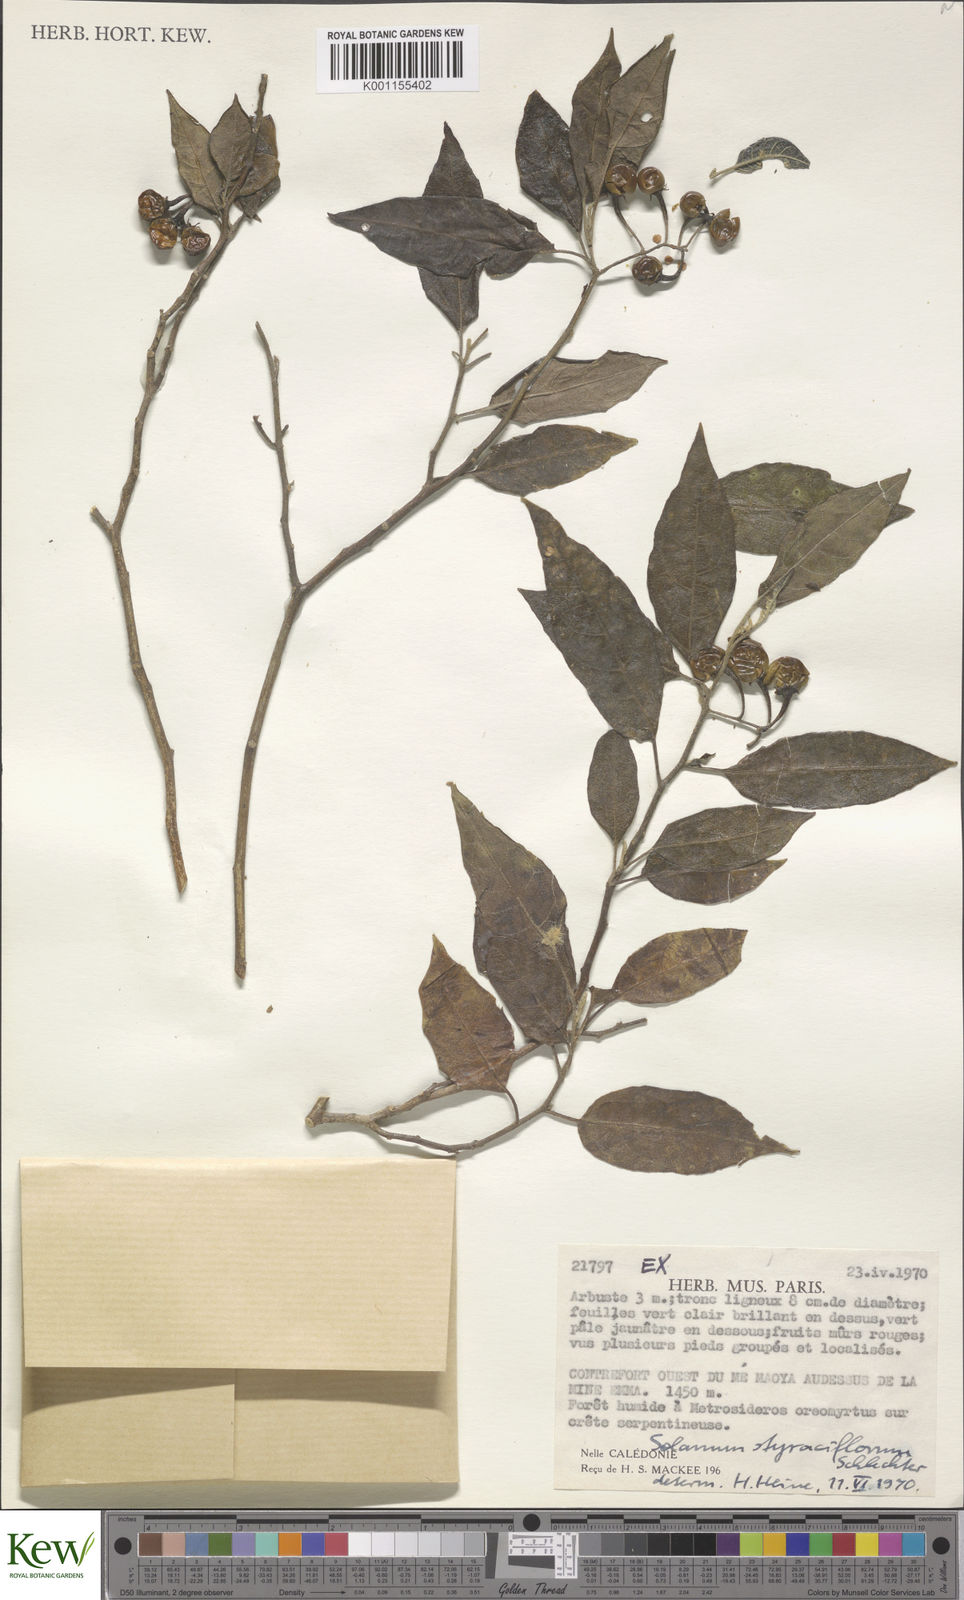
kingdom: Plantae
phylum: Tracheophyta
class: Magnoliopsida
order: Solanales
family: Solanaceae
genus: Solanum
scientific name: Solanum
